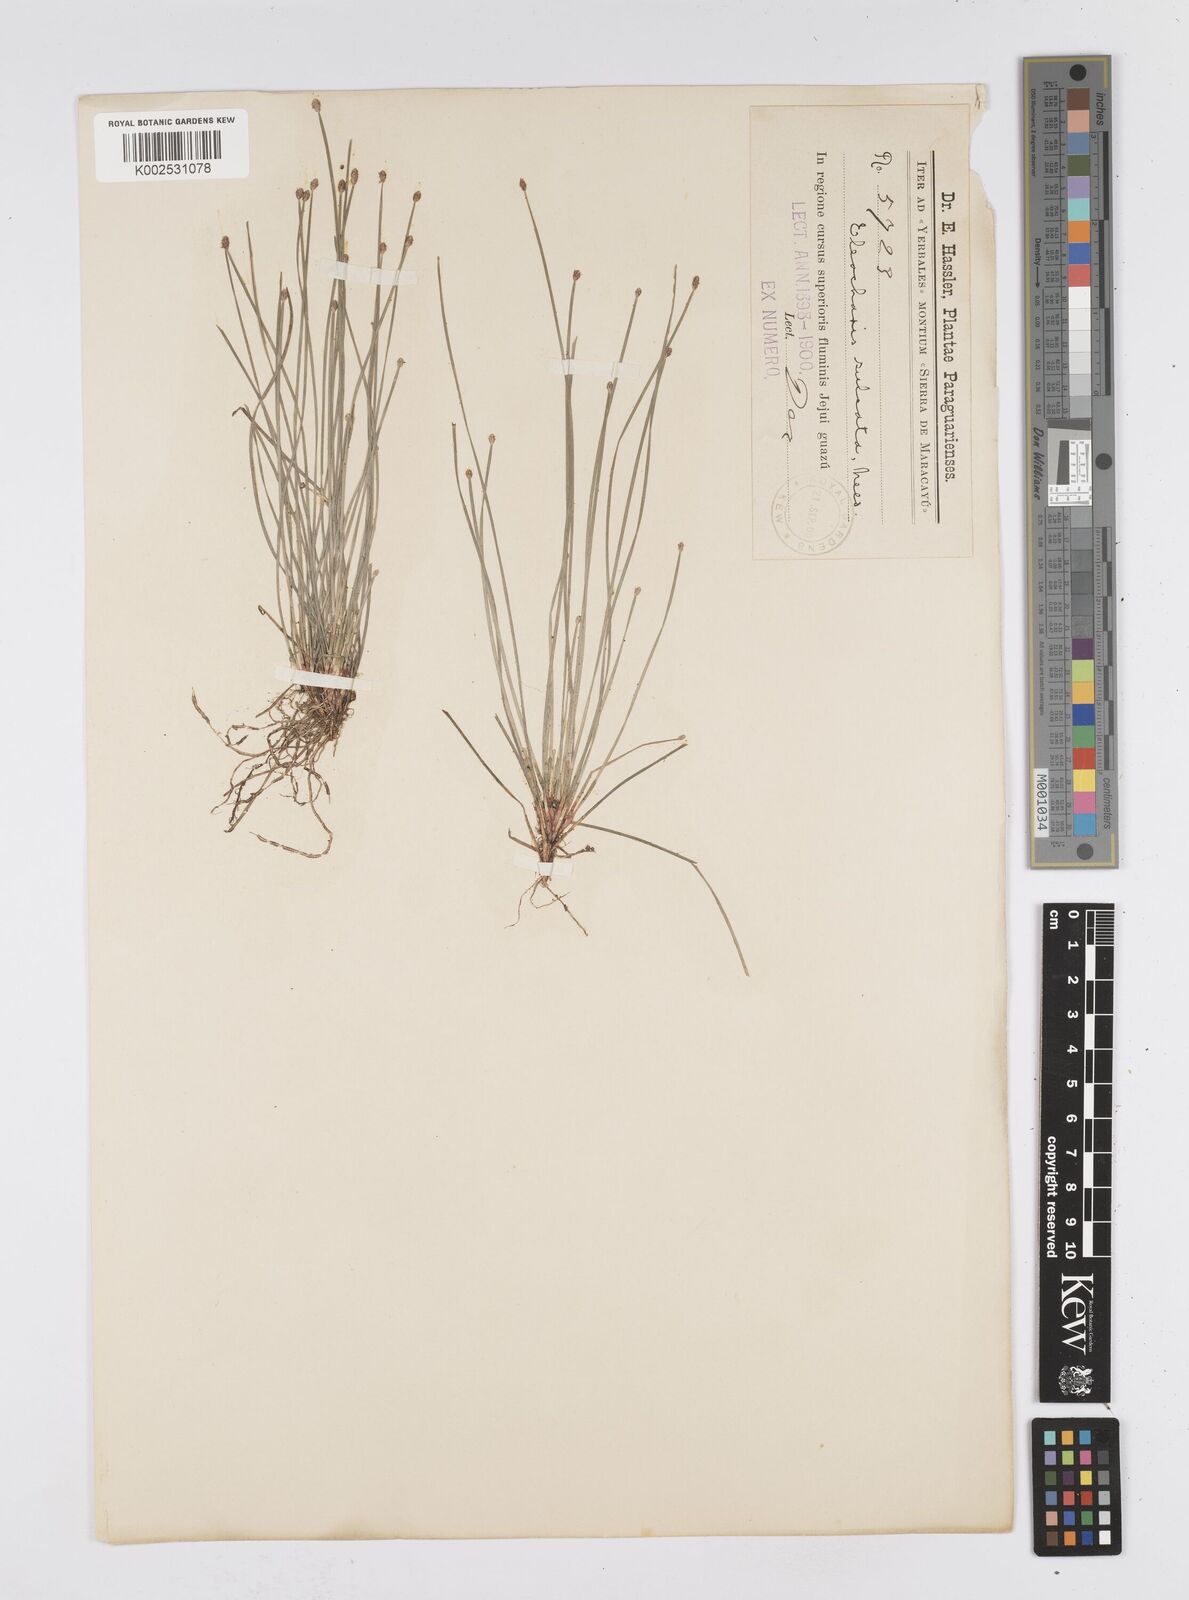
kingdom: Plantae
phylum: Tracheophyta
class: Liliopsida
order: Poales
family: Cyperaceae
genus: Eleocharis
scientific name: Eleocharis filiculmis
